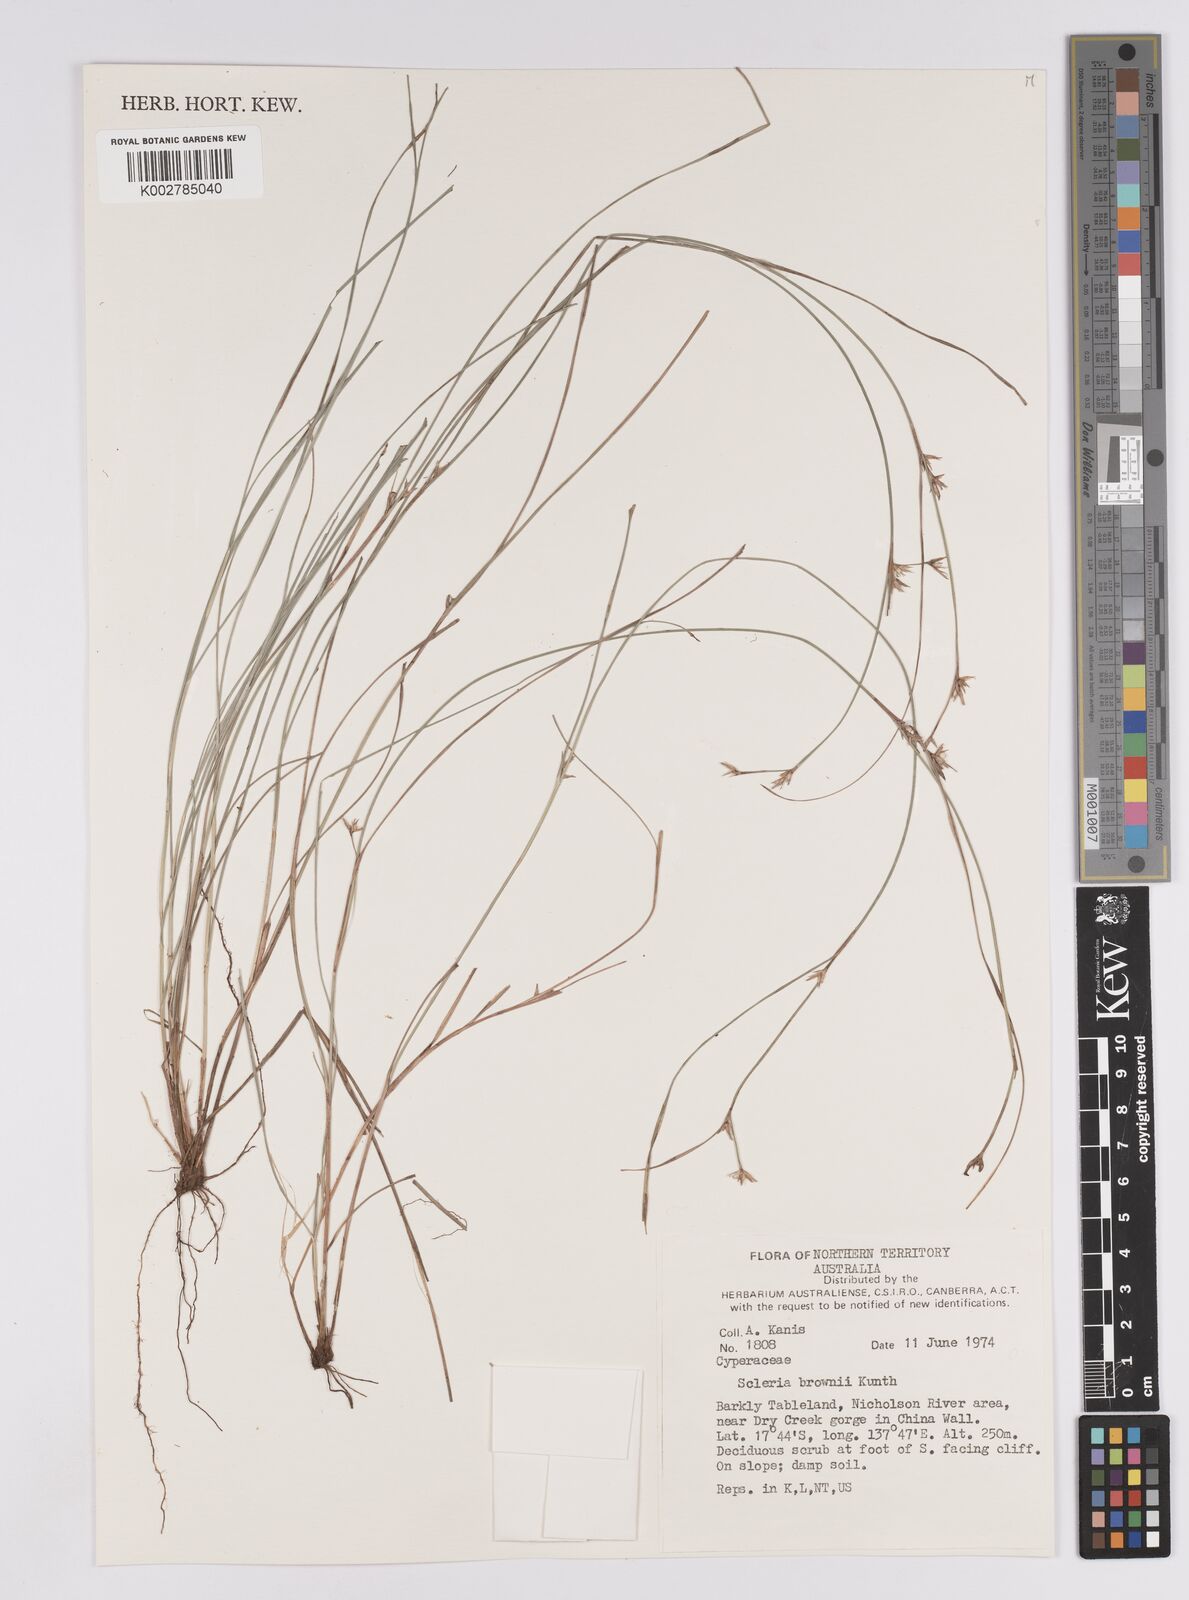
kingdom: Plantae
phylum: Tracheophyta
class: Liliopsida
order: Poales
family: Cyperaceae
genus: Scleria
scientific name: Scleria brownii
